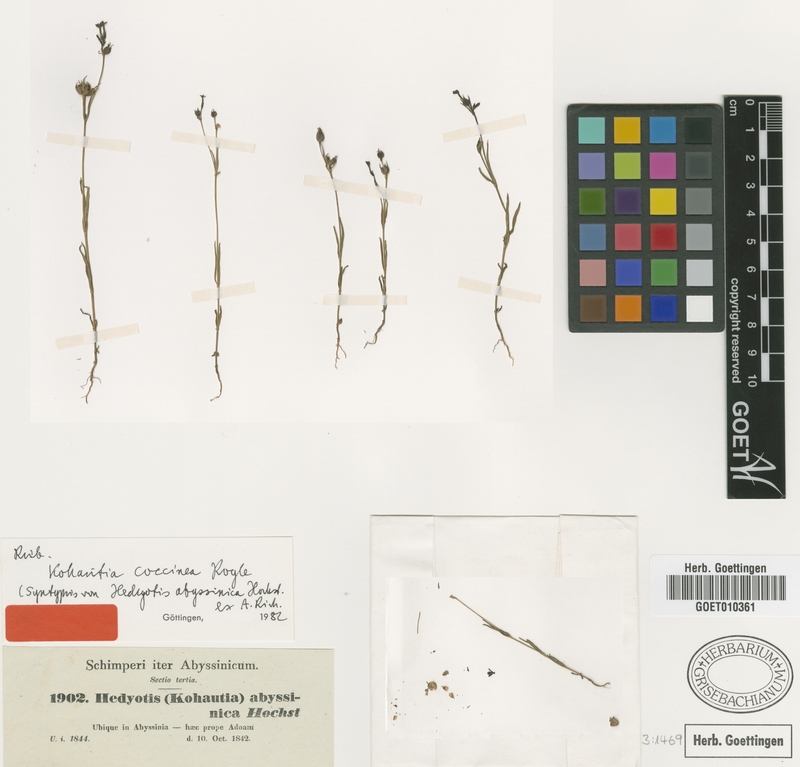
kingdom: Plantae
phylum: Tracheophyta
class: Magnoliopsida
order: Gentianales
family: Rubiaceae
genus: Kohautia
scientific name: Kohautia coccinea
